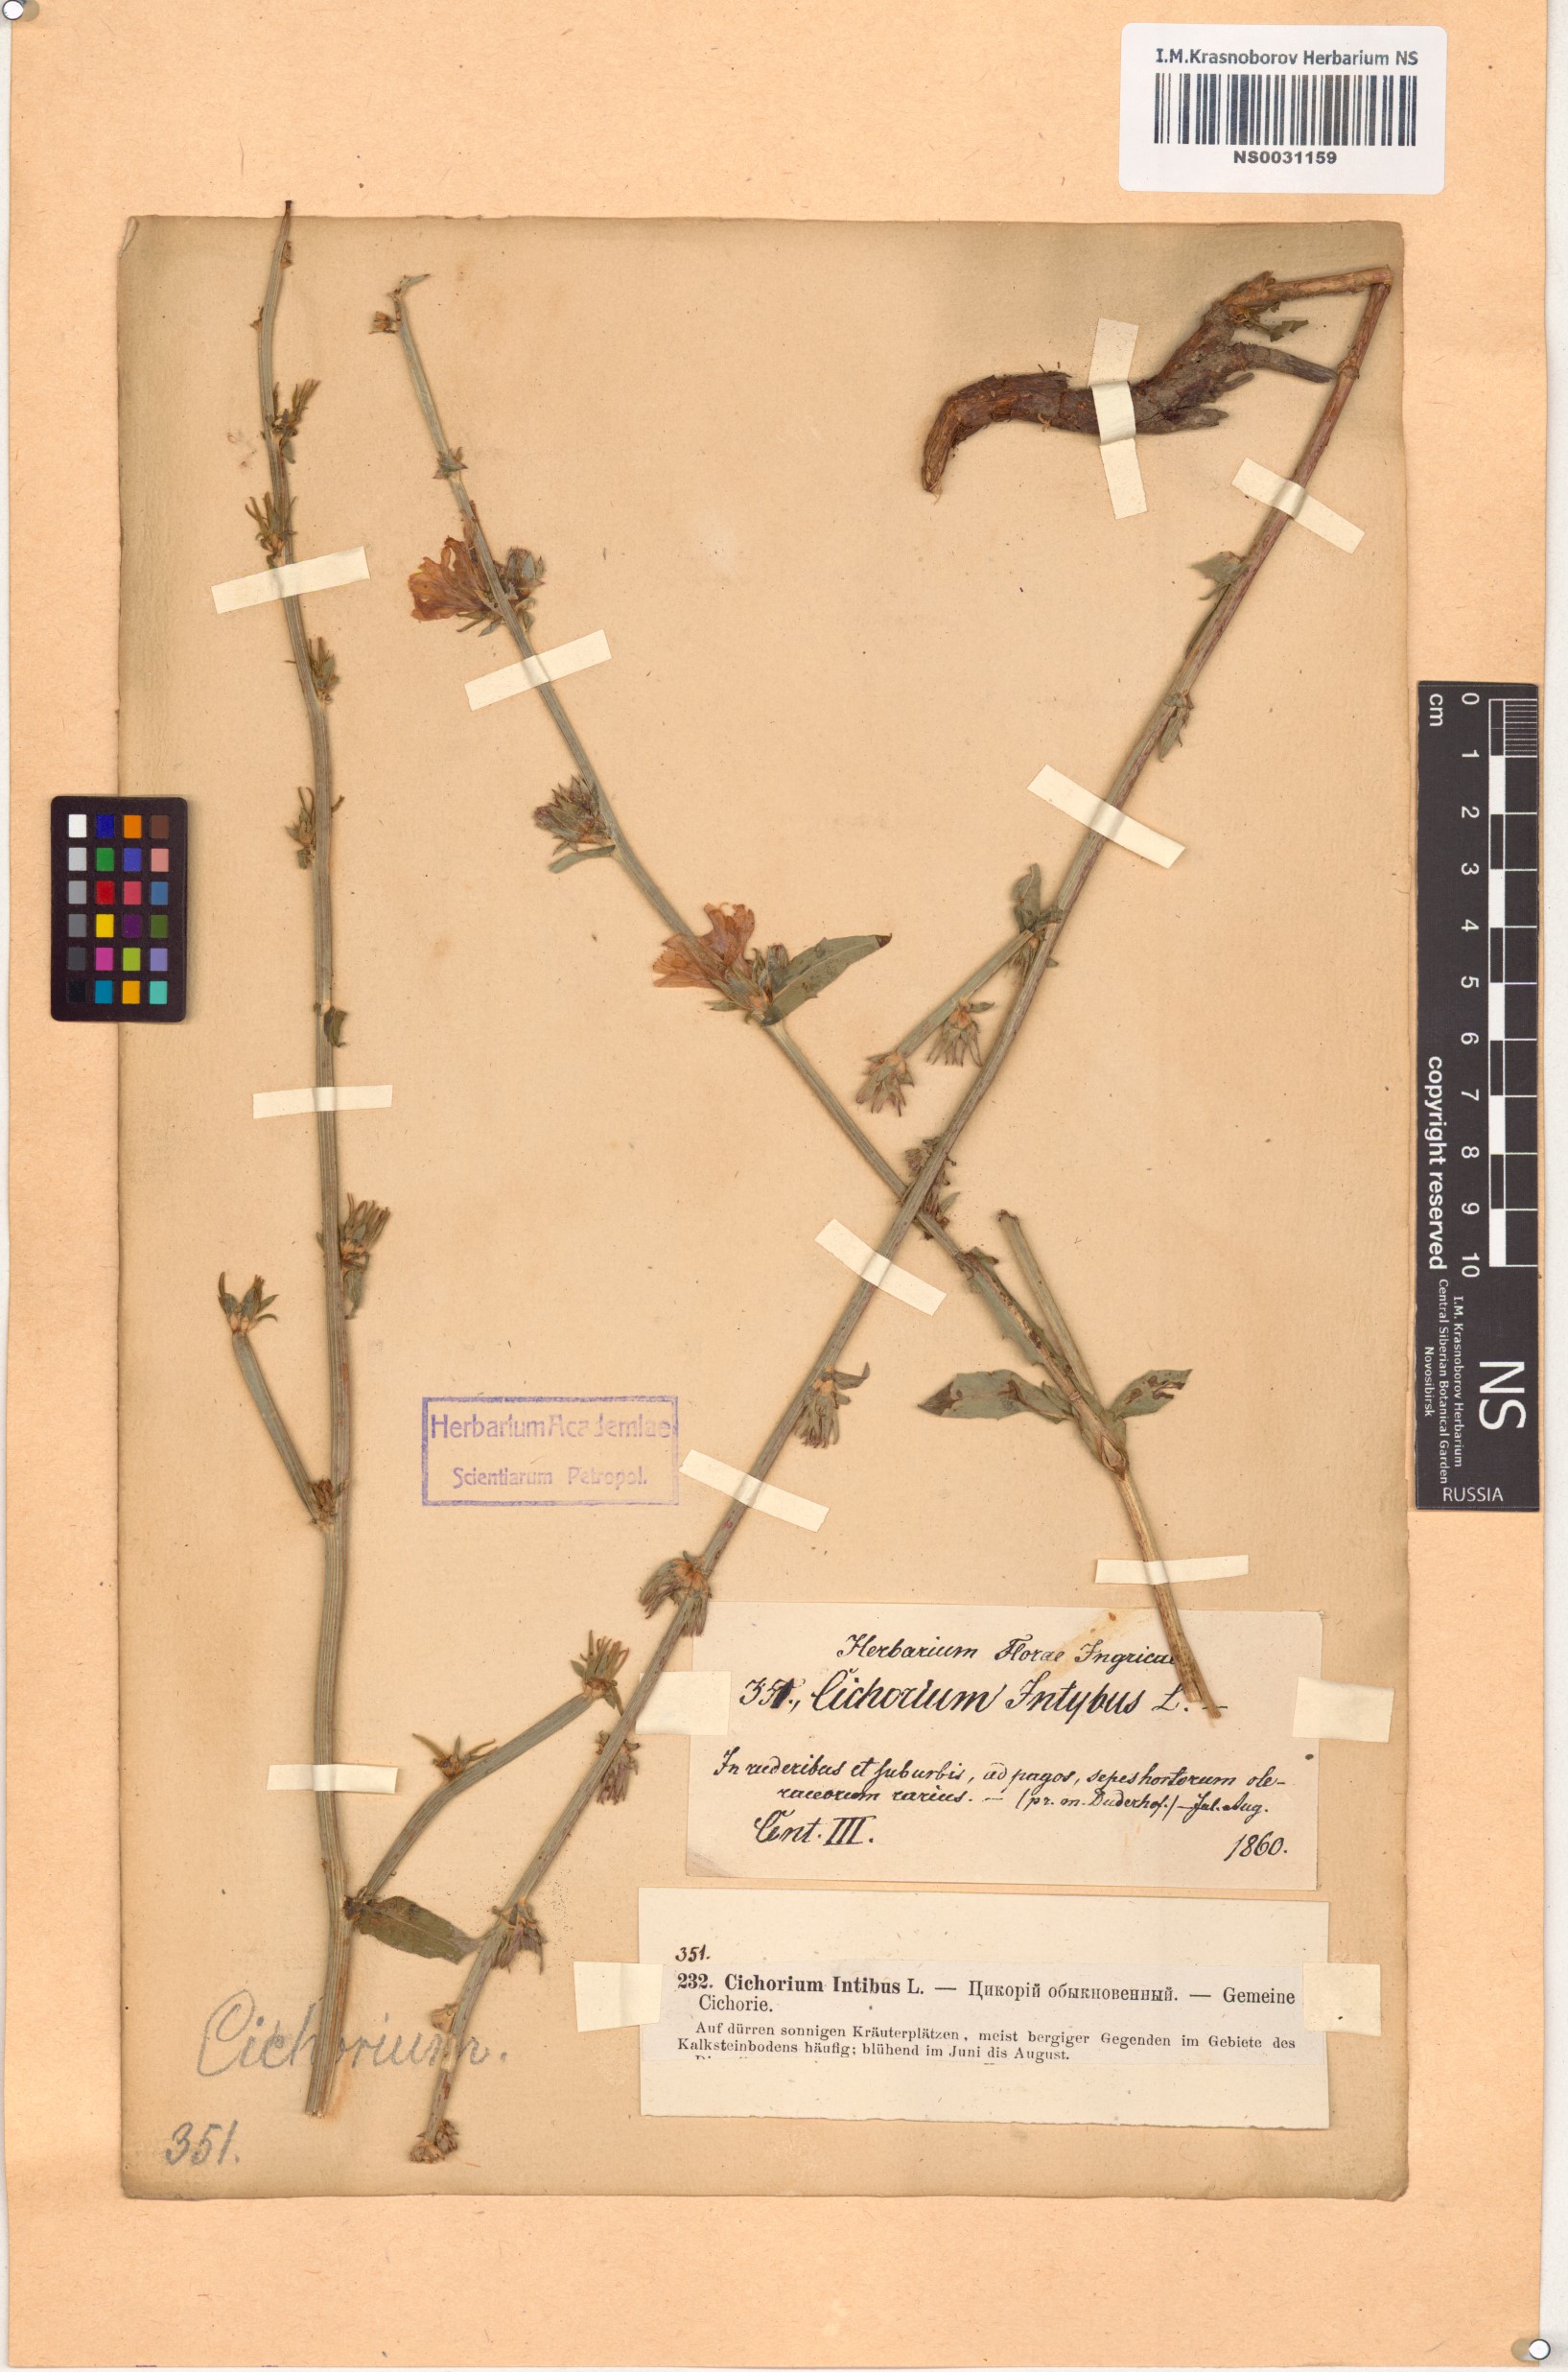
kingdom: Plantae
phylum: Tracheophyta
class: Magnoliopsida
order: Asterales
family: Asteraceae
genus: Cichorium
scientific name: Cichorium intybus
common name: Chicory
